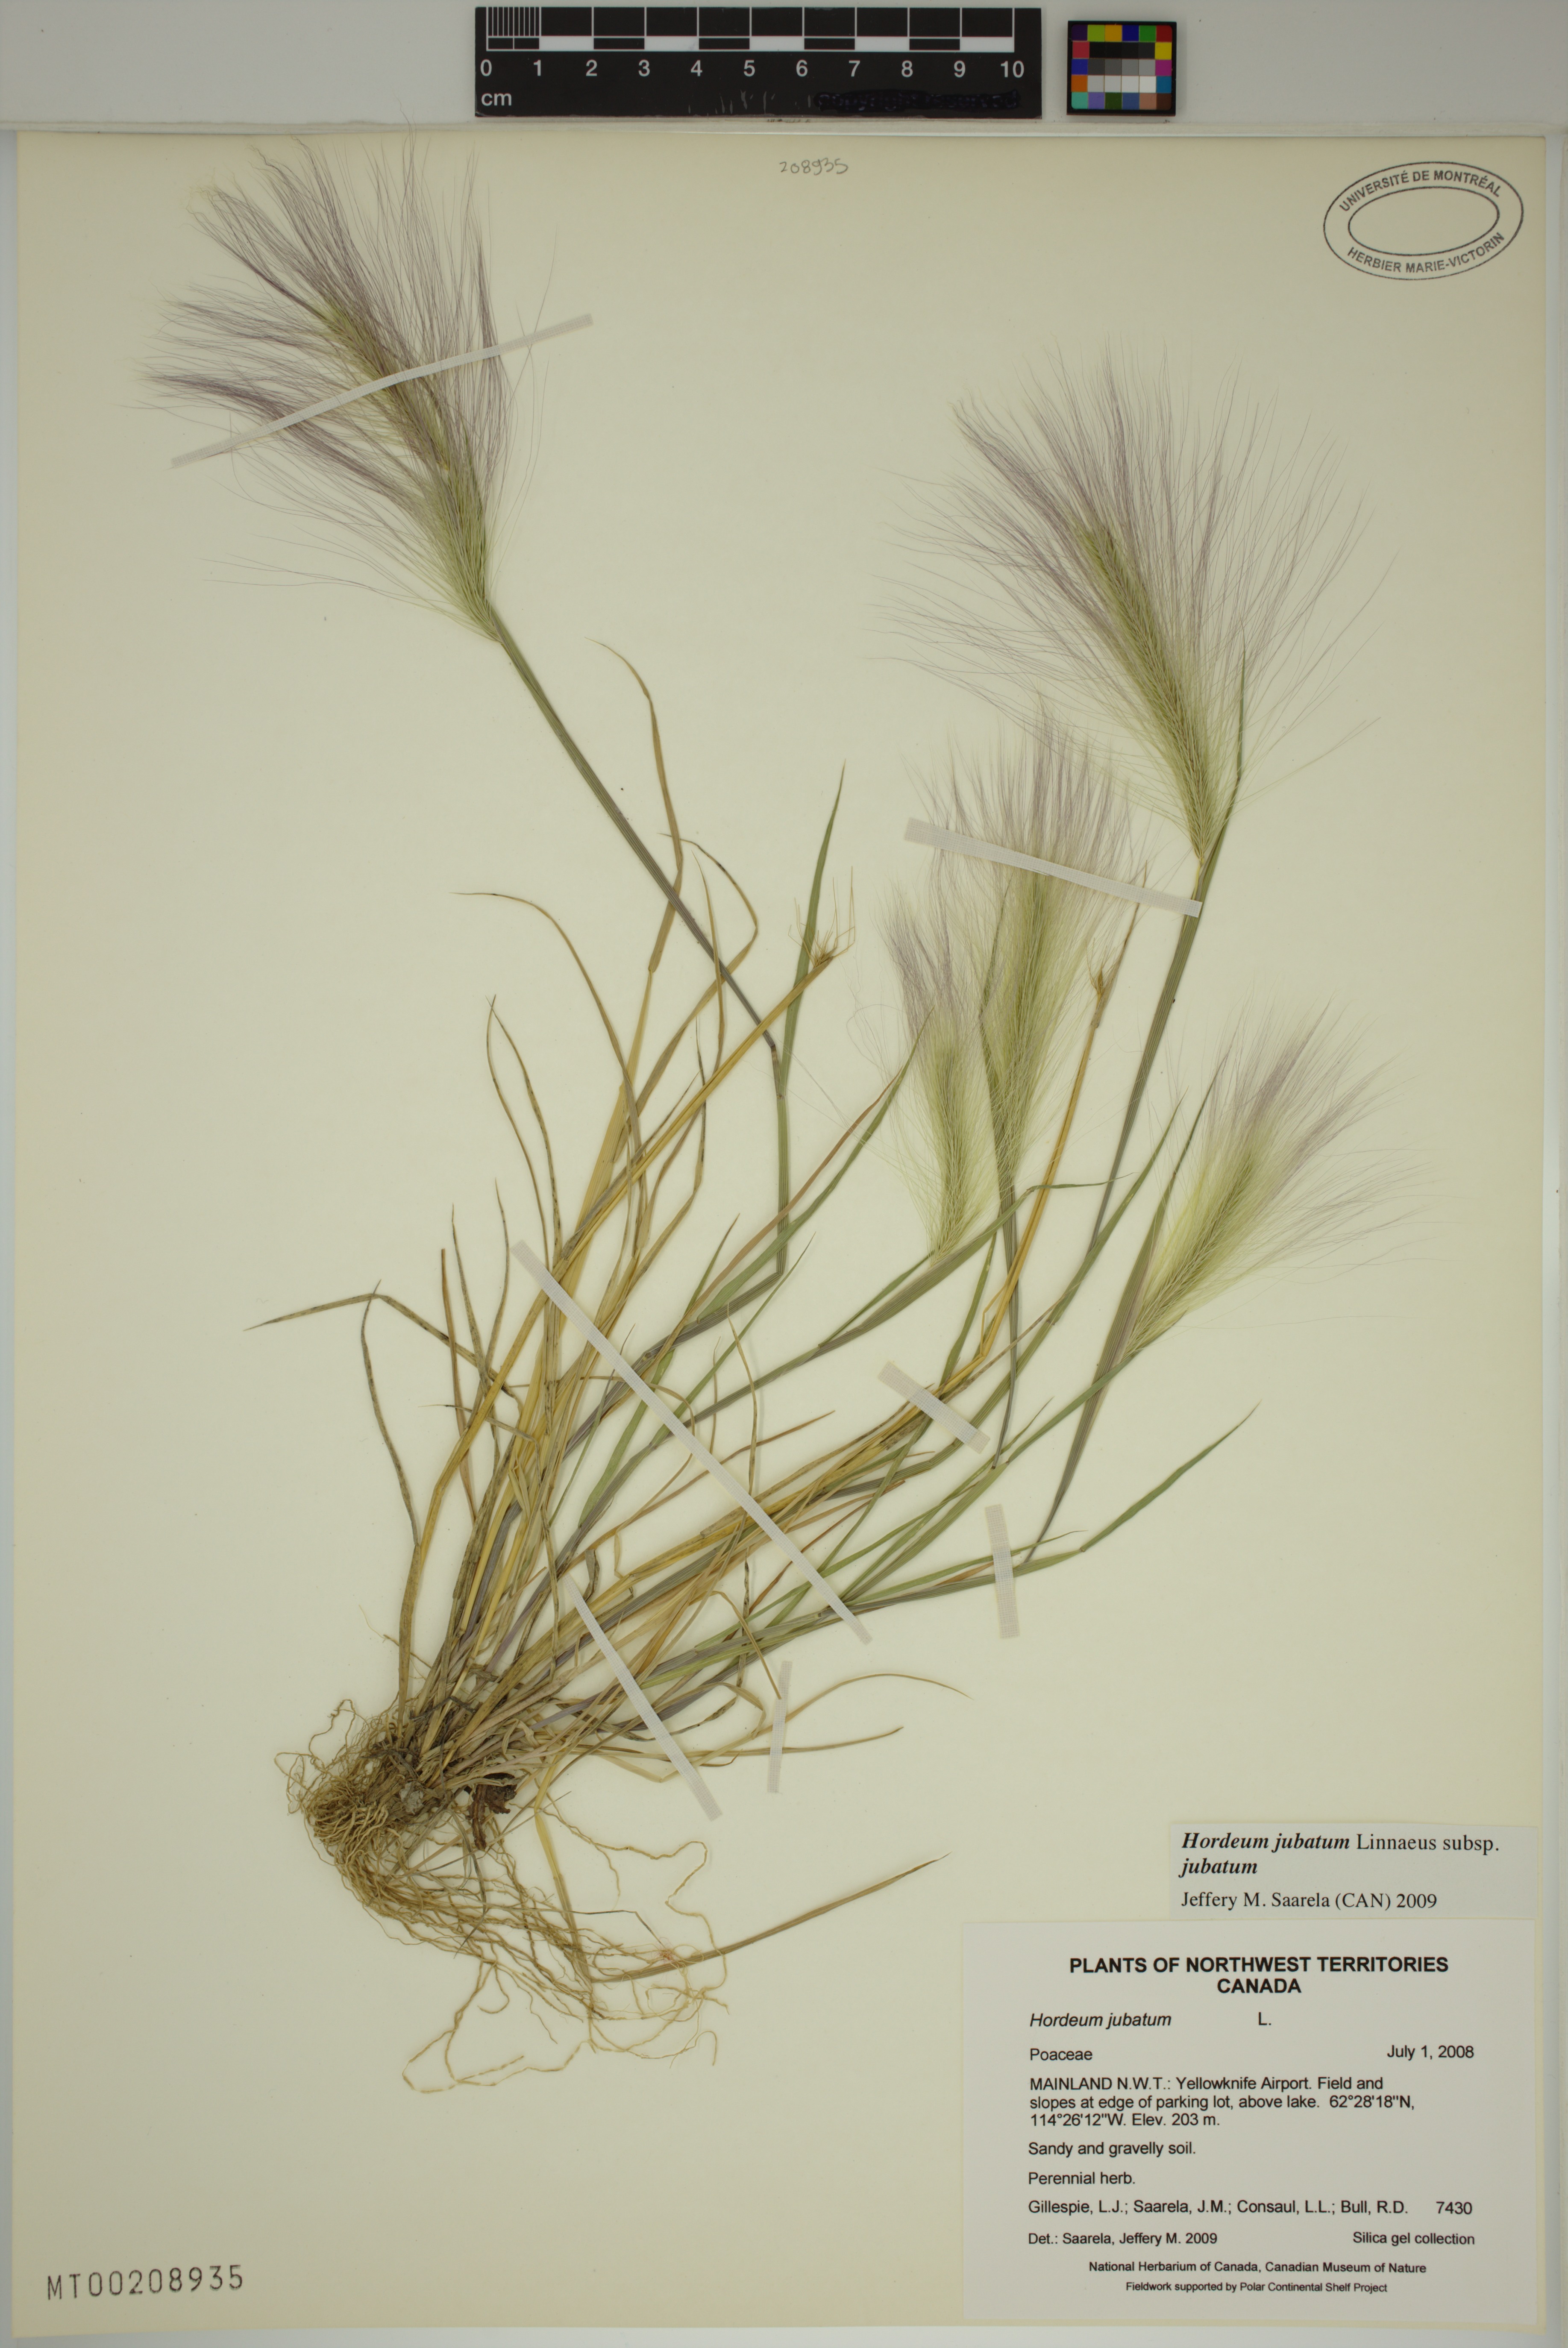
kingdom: Plantae
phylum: Tracheophyta
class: Liliopsida
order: Poales
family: Poaceae
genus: Hordeum
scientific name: Hordeum jubatum
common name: Foxtail barley
